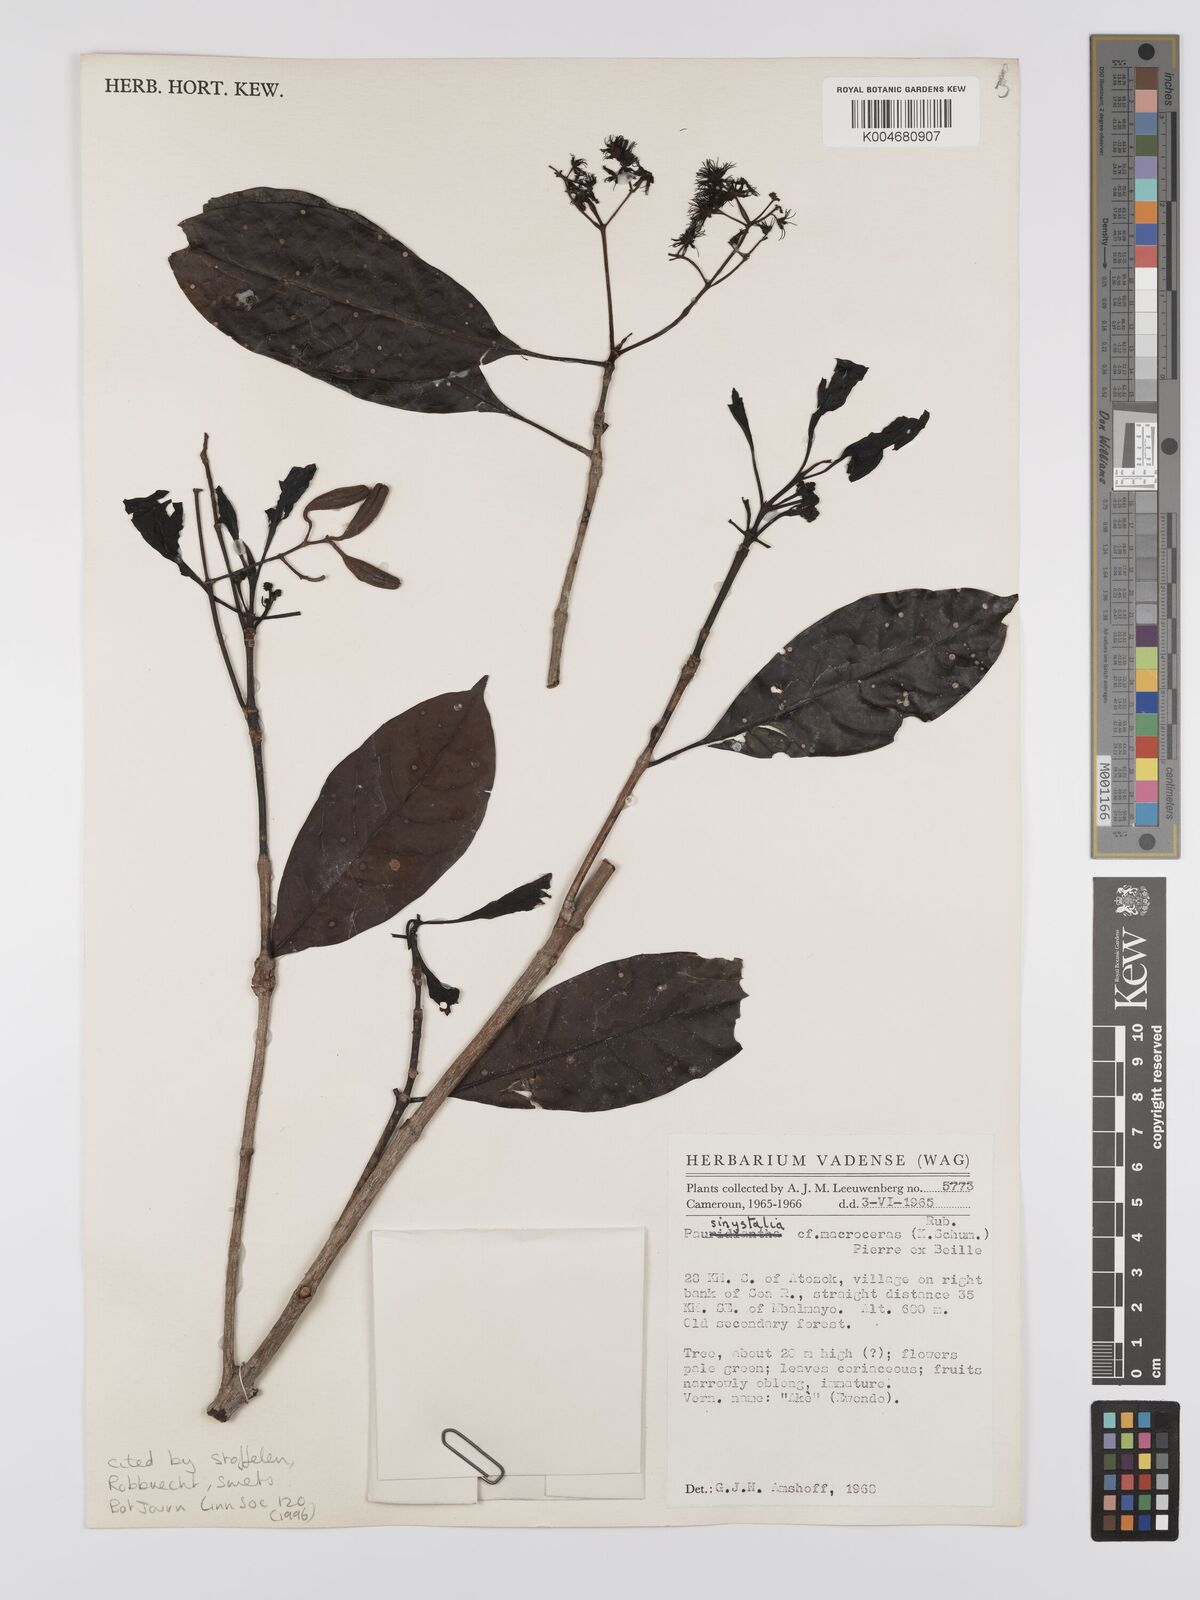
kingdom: Plantae
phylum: Tracheophyta
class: Magnoliopsida
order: Gentianales
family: Rubiaceae
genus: Corynanthe
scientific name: Corynanthe macroceras
